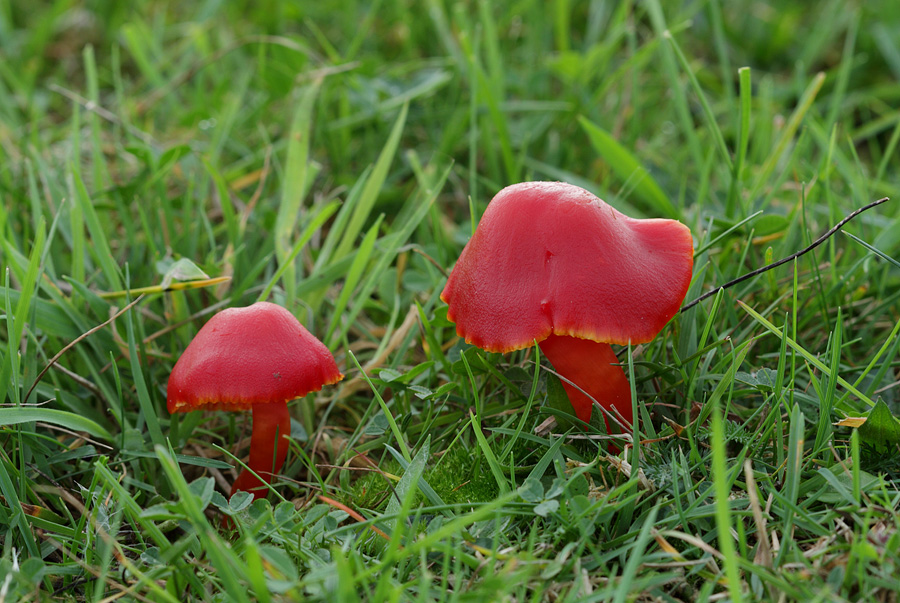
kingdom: Fungi
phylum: Basidiomycota
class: Agaricomycetes
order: Agaricales
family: Hygrophoraceae
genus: Hygrocybe
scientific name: Hygrocybe coccinea
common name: cinnober-vokshat
